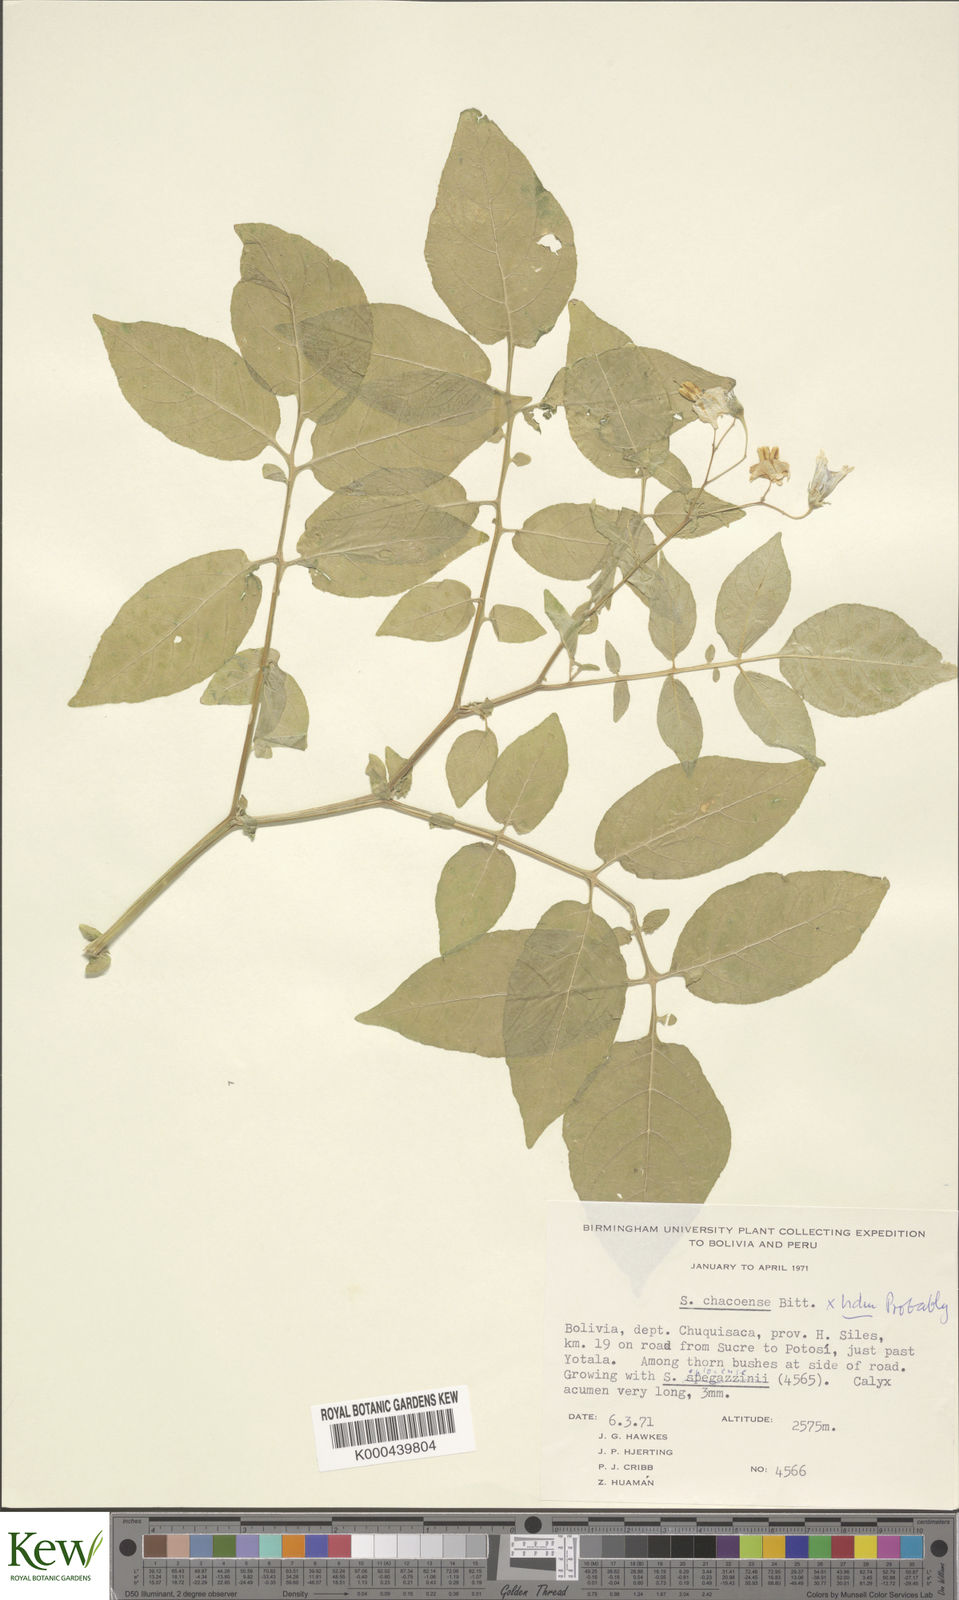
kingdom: Plantae
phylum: Tracheophyta
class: Magnoliopsida
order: Solanales
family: Solanaceae
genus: Solanum
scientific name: Solanum chacoense
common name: Chaco potato
